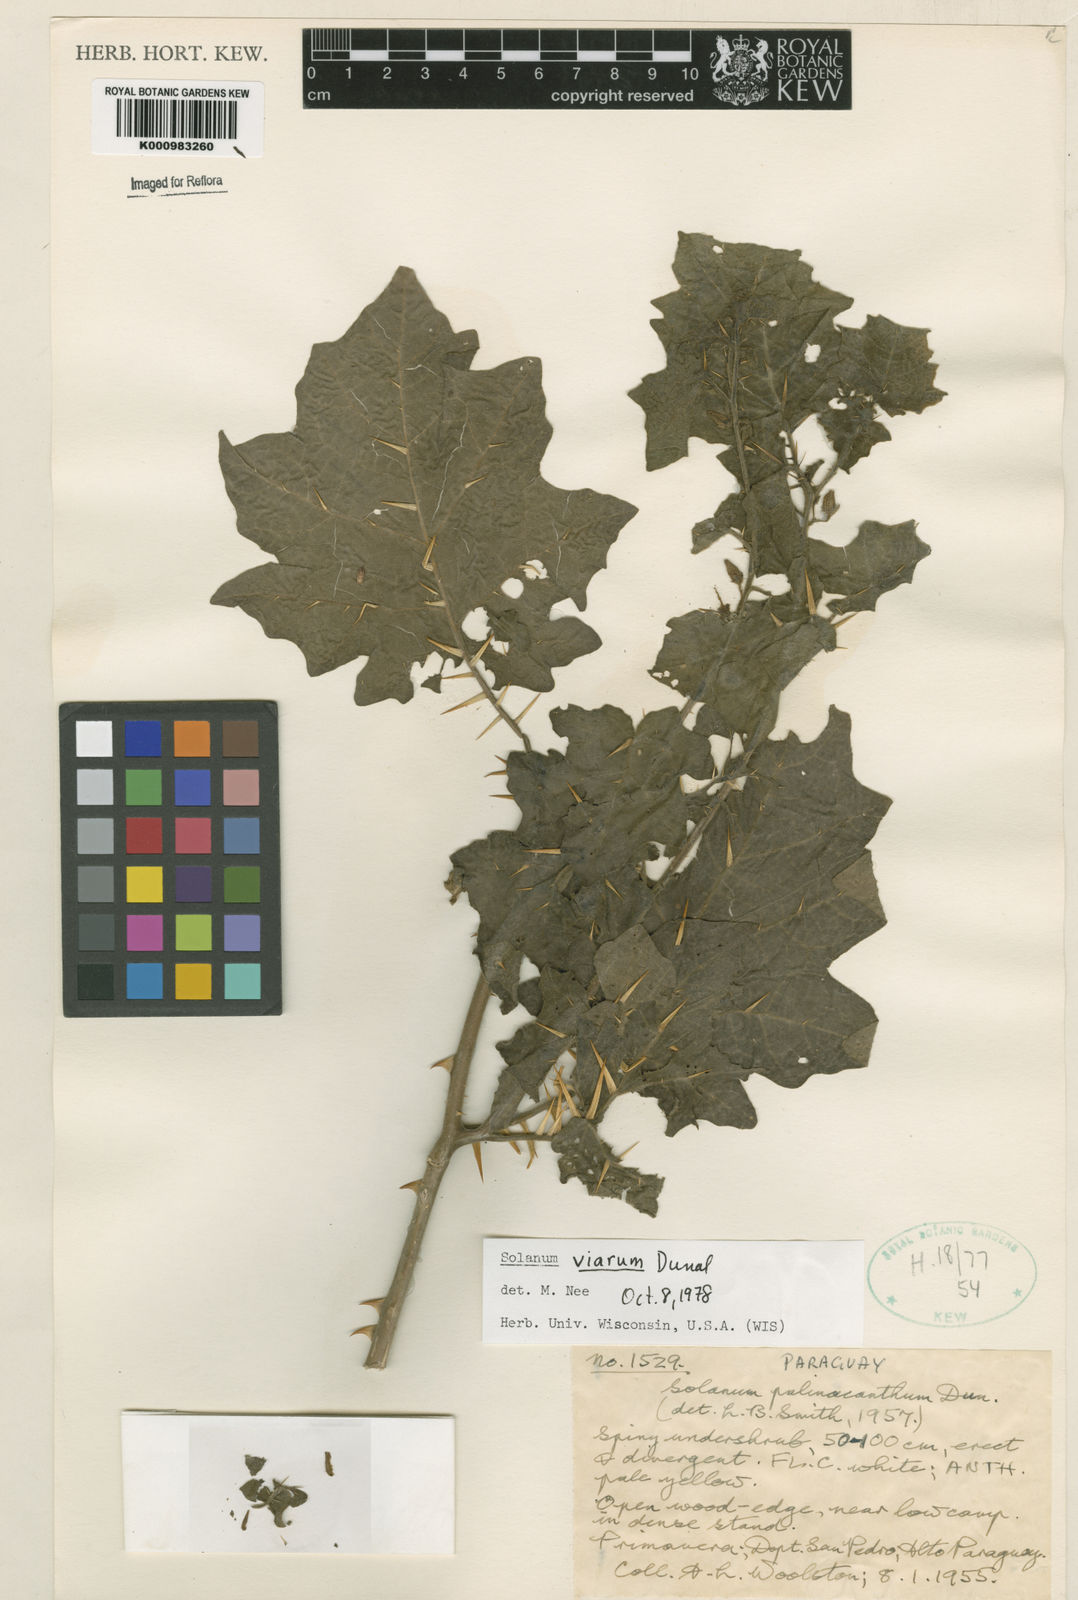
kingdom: Plantae
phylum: Tracheophyta
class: Magnoliopsida
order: Solanales
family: Solanaceae
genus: Solanum
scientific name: Solanum viarum
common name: Tropical soda apple
